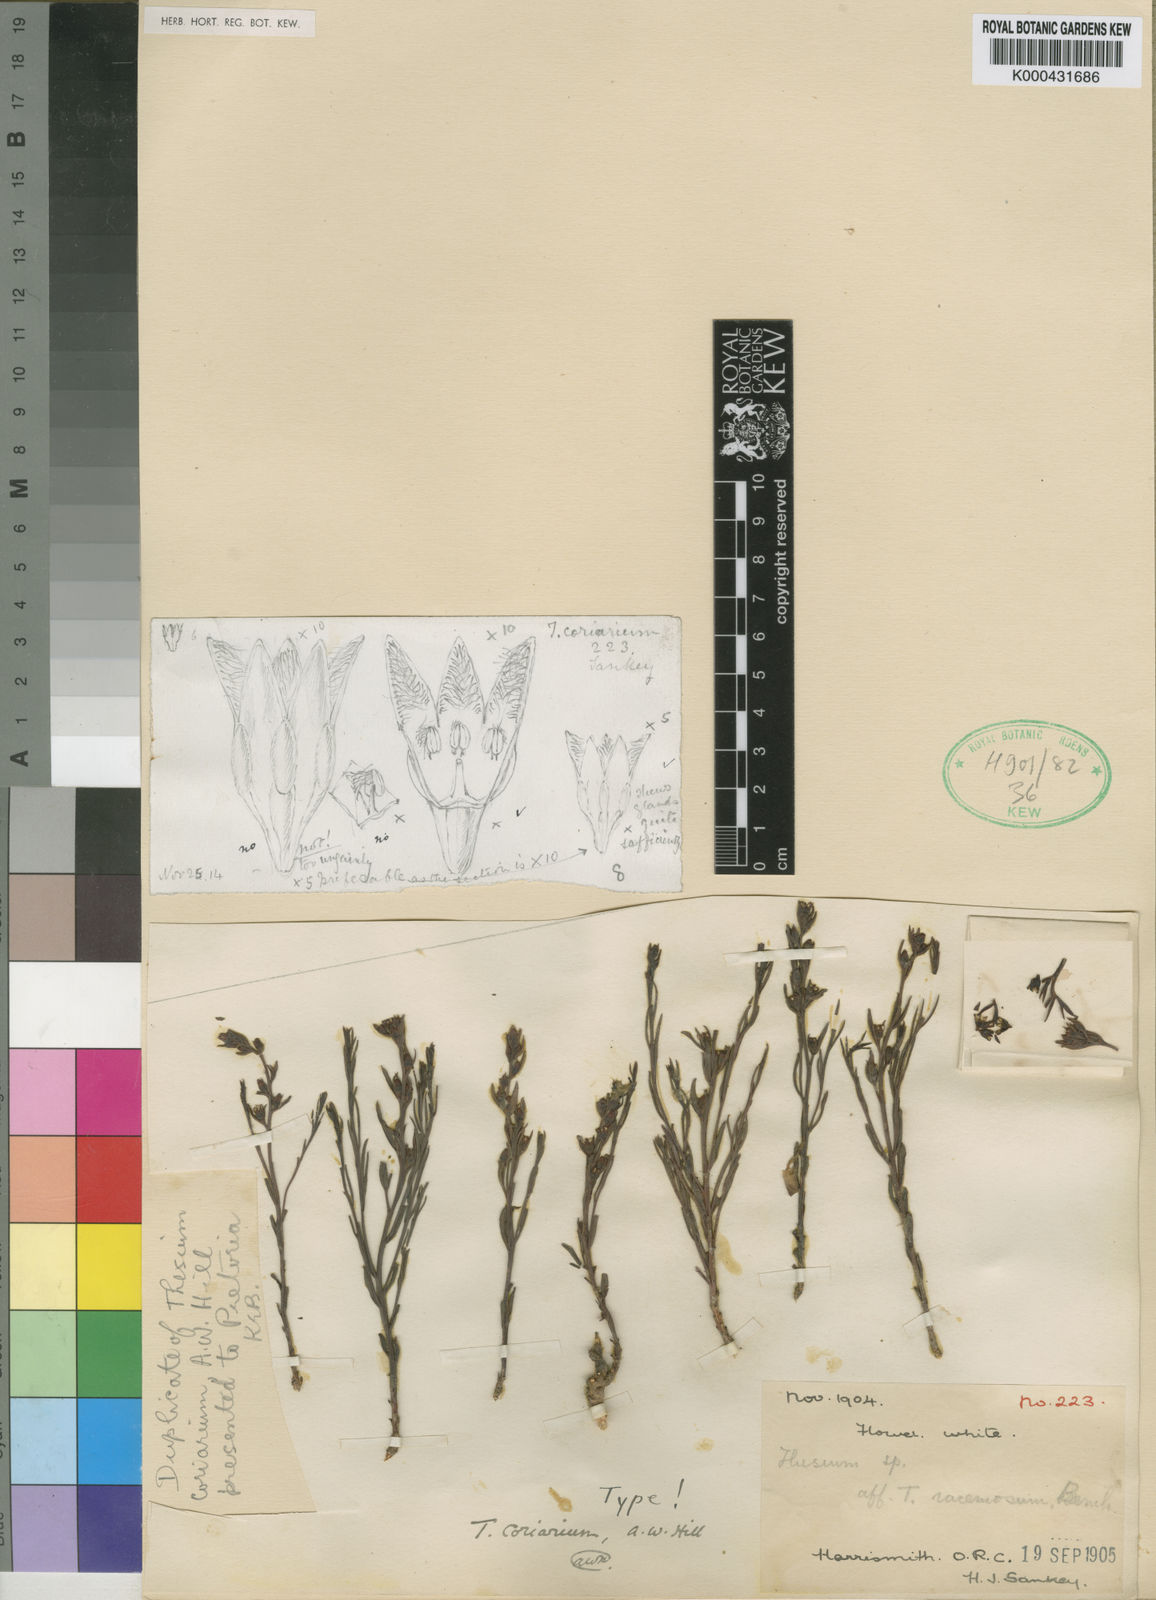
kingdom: Plantae
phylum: Tracheophyta
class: Magnoliopsida
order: Santalales
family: Thesiaceae
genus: Thesium
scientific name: Thesium coriarium
